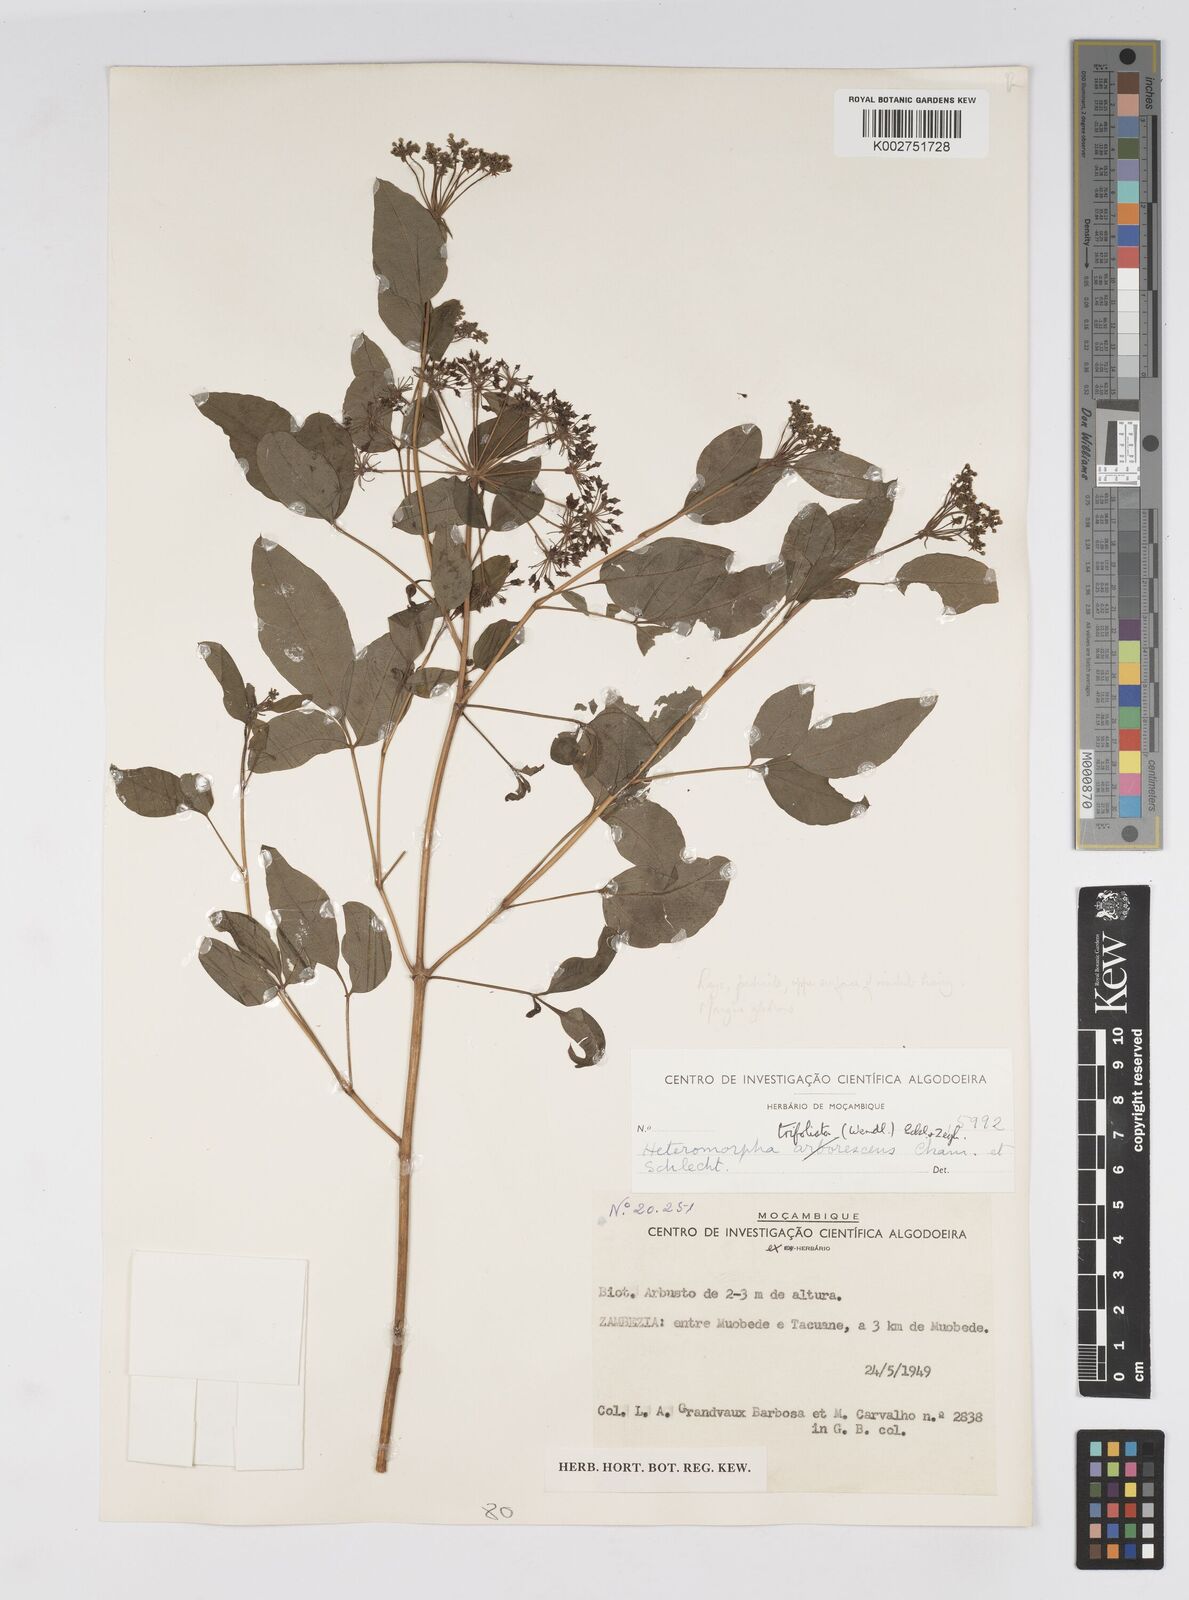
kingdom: Plantae
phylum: Tracheophyta
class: Magnoliopsida
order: Apiales
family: Apiaceae
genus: Heteromorpha
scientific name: Heteromorpha involucrata
